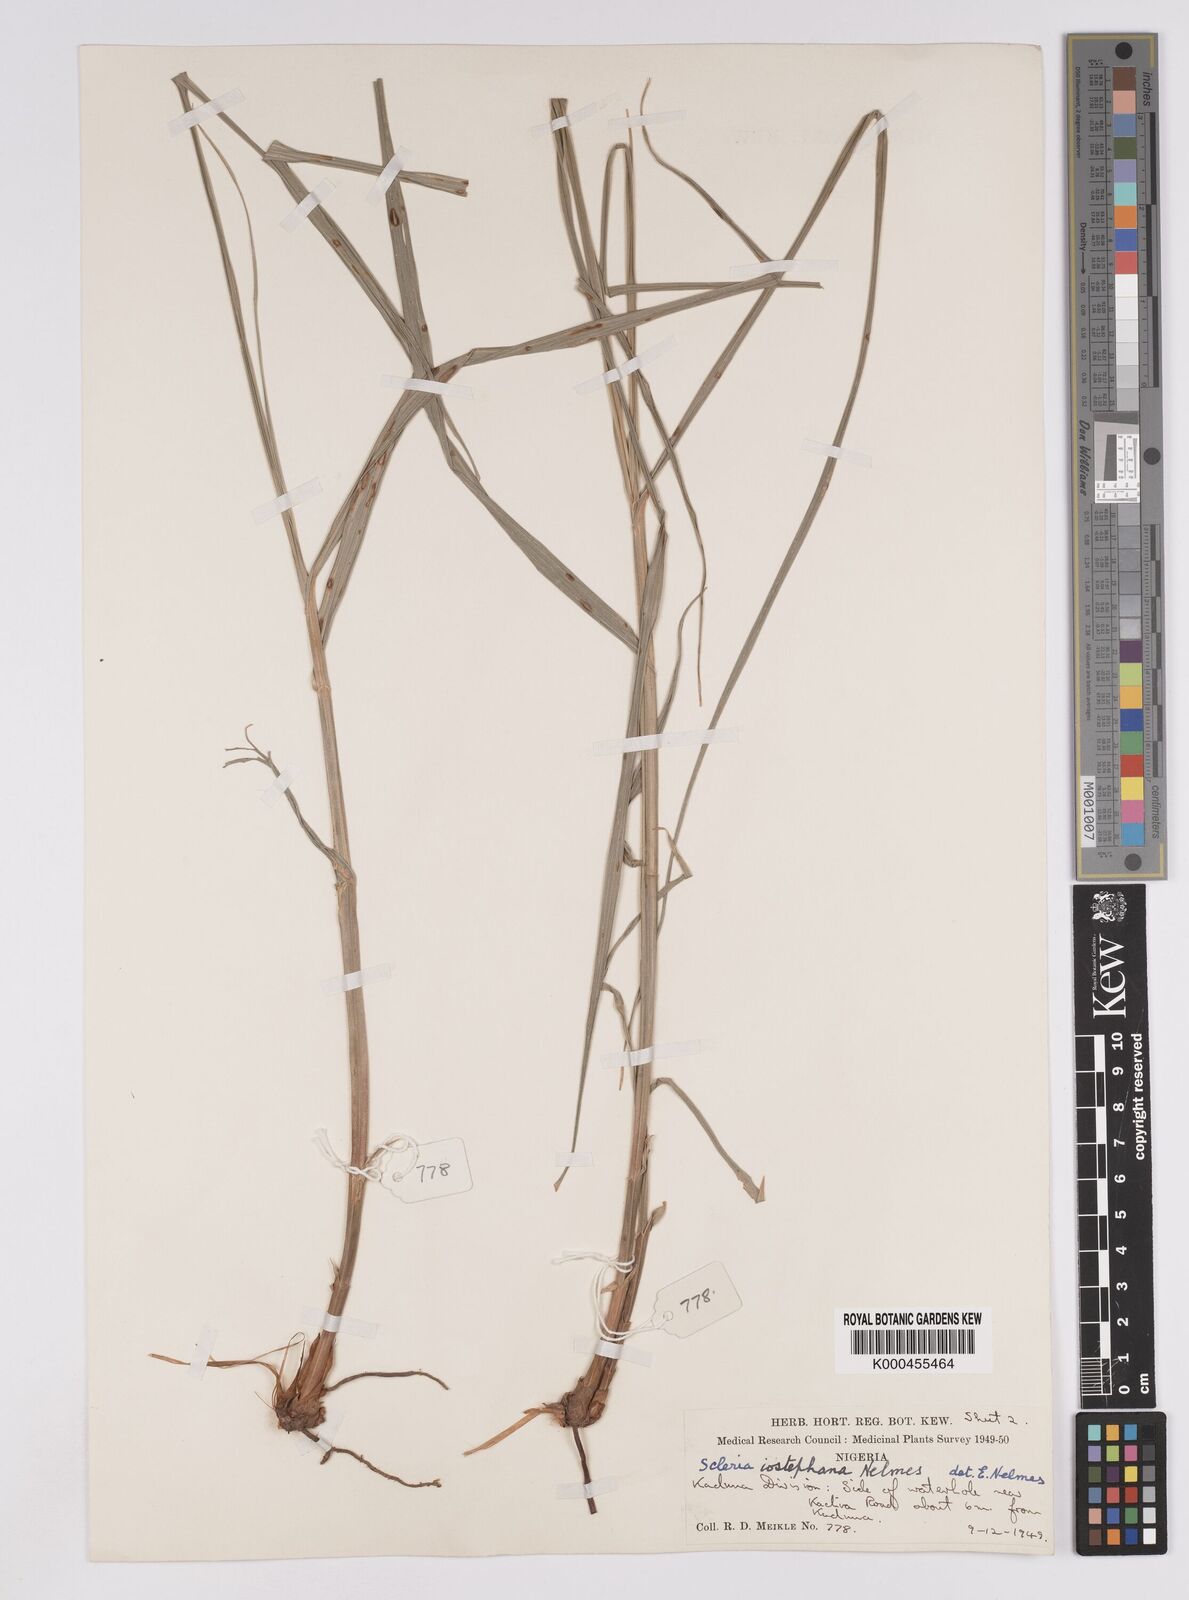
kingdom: Plantae
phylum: Tracheophyta
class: Liliopsida
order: Poales
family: Cyperaceae
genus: Scleria
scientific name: Scleria iostephana
